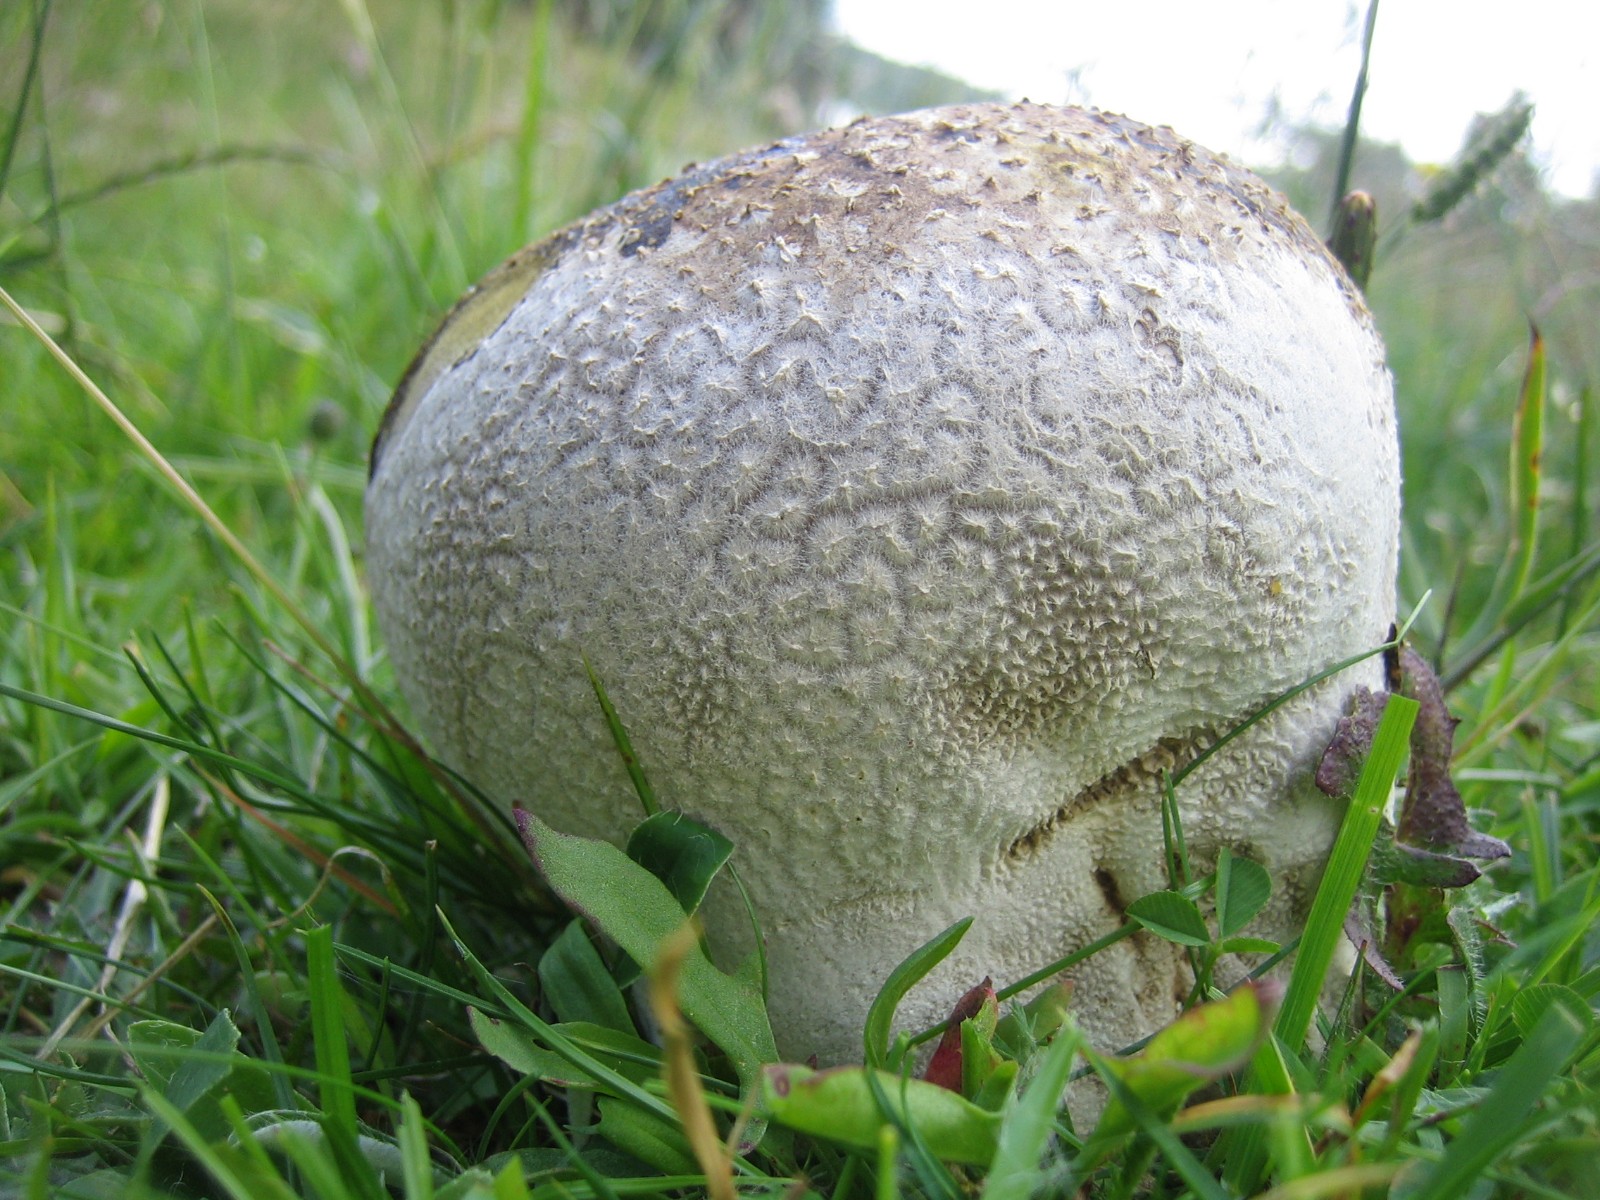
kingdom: Fungi
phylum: Basidiomycota
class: Agaricomycetes
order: Agaricales
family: Lycoperdaceae
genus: Bovistella
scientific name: Bovistella utriformis
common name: skællet støvbold
